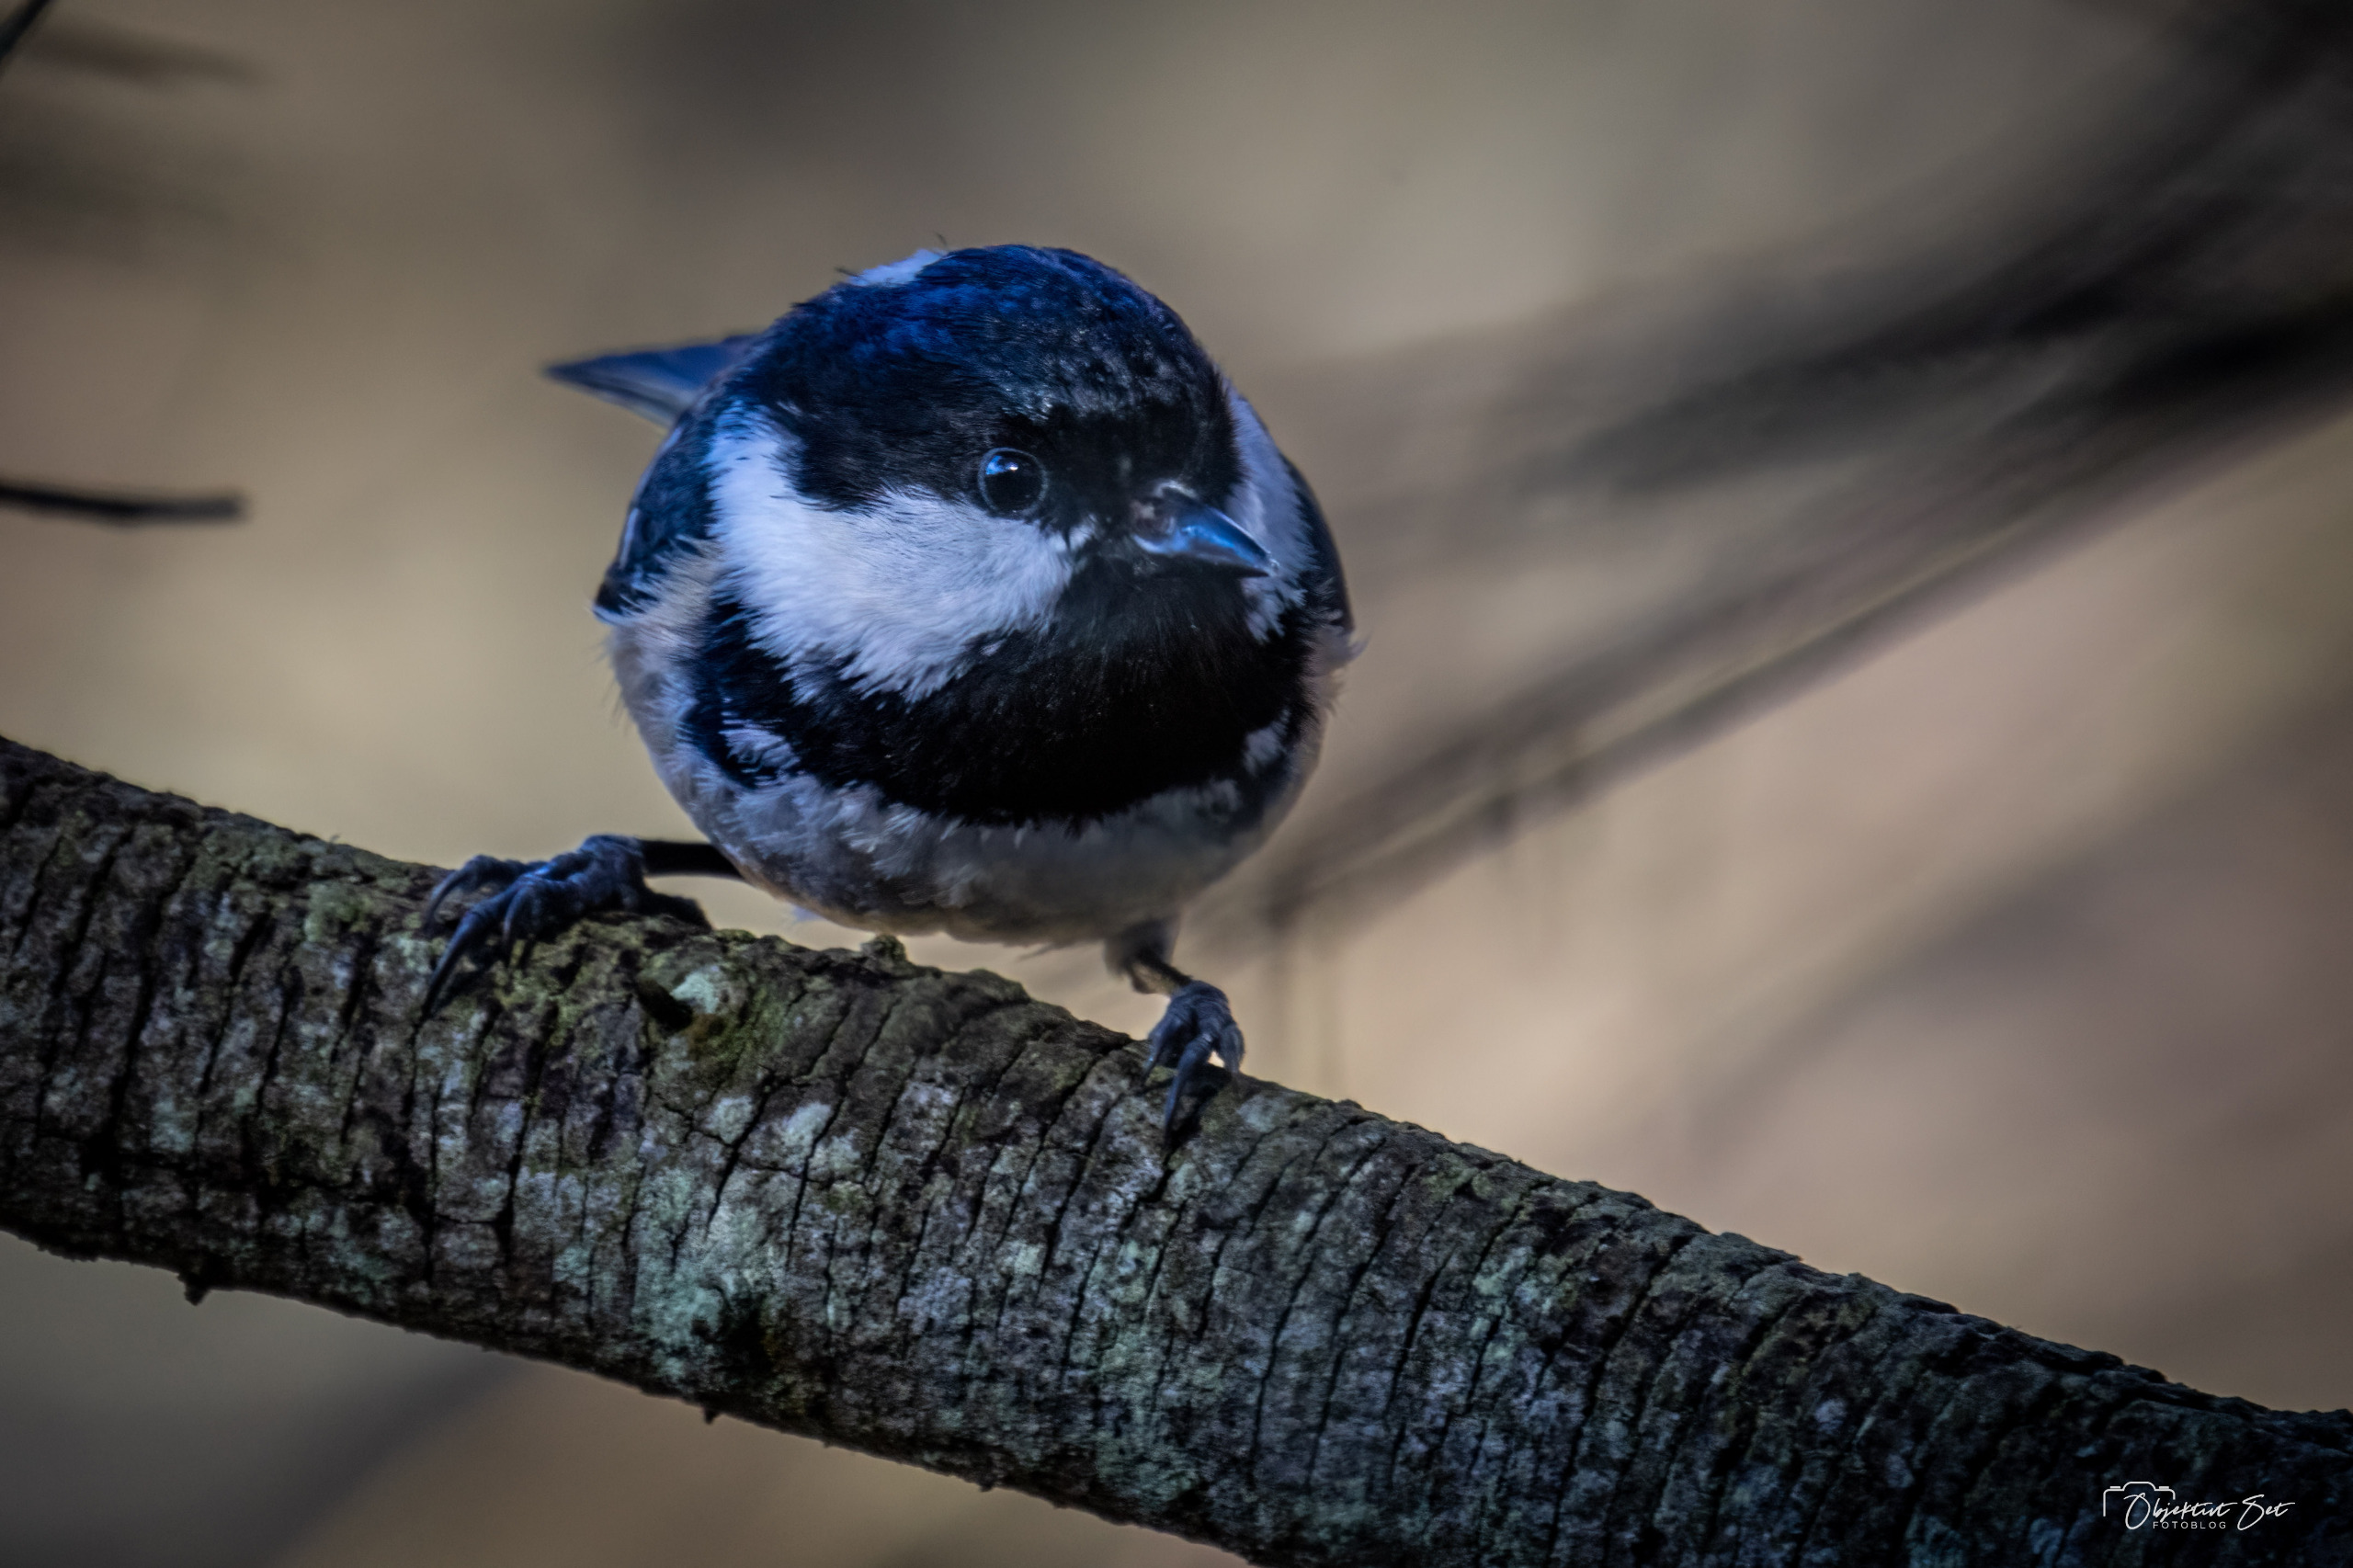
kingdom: Animalia
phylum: Chordata
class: Aves
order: Passeriformes
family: Paridae
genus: Periparus
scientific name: Periparus ater
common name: Sortmejse
